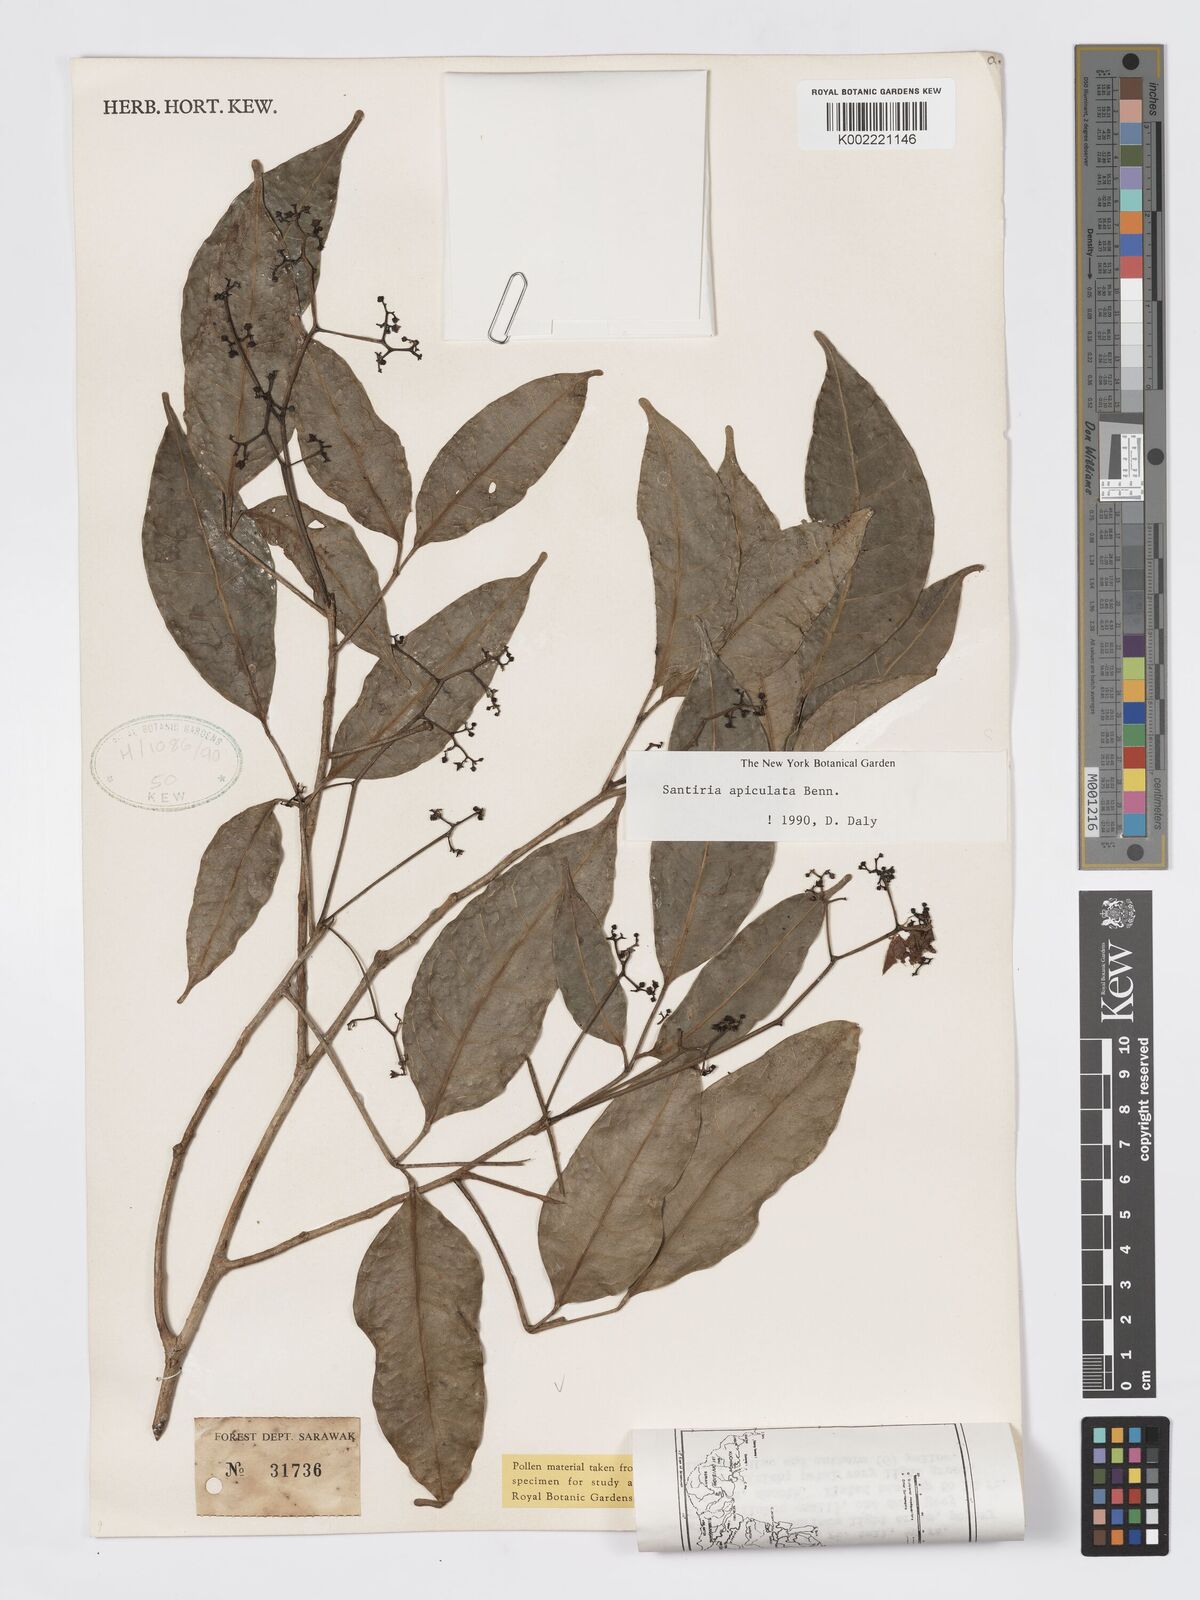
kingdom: Plantae
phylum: Tracheophyta
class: Magnoliopsida
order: Sapindales
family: Burseraceae
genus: Santiria
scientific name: Santiria apiculata
